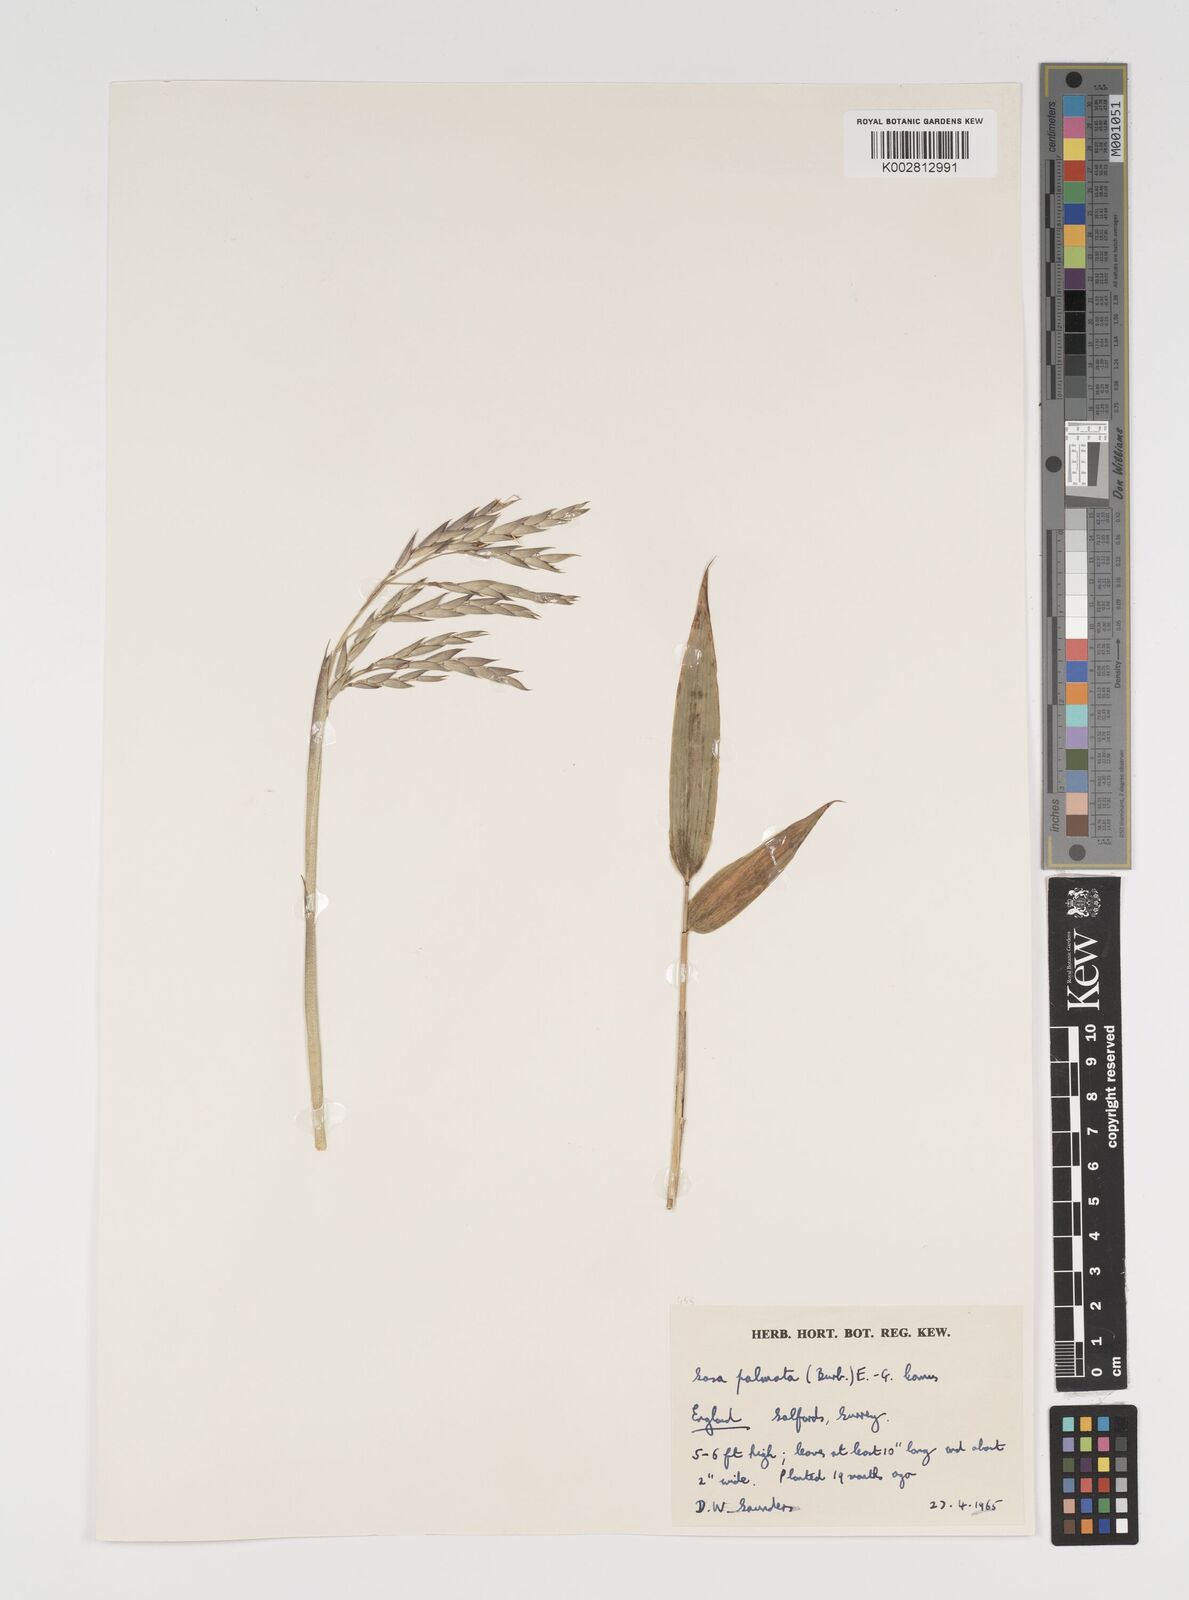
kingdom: Plantae
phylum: Tracheophyta
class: Liliopsida
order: Poales
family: Poaceae
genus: Sasa
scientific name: Sasa palmata
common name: Broad-leaved bamboo
